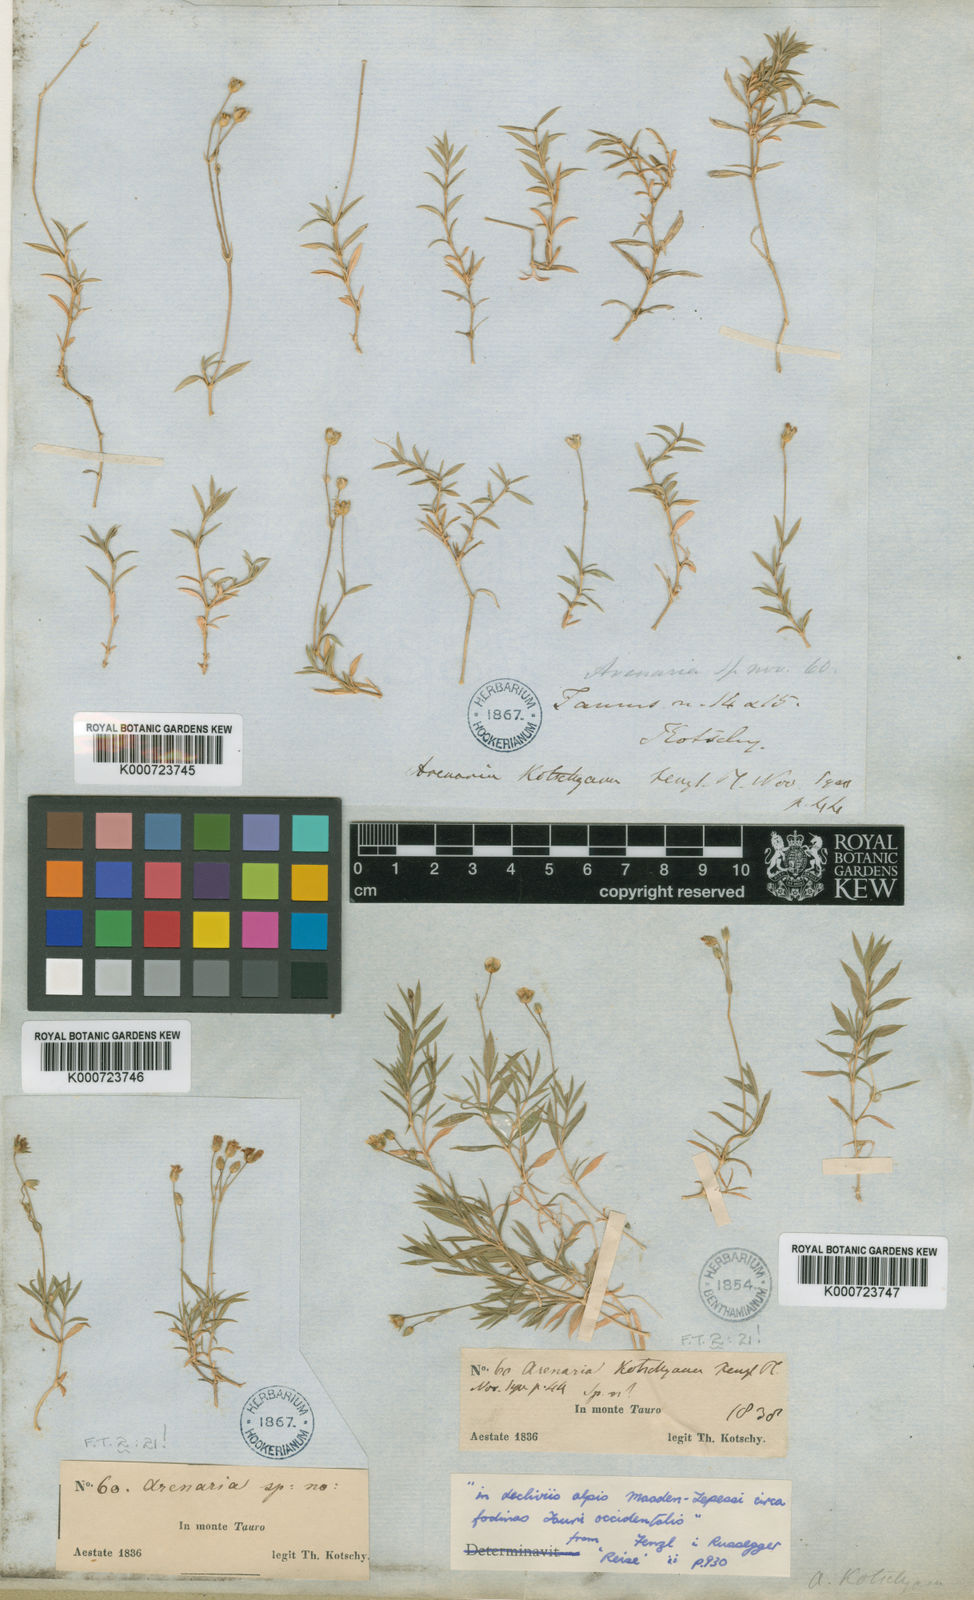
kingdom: Plantae
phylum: Tracheophyta
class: Magnoliopsida
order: Caryophyllales
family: Caryophyllaceae
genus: Arenaria
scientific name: Arenaria kotschyana
